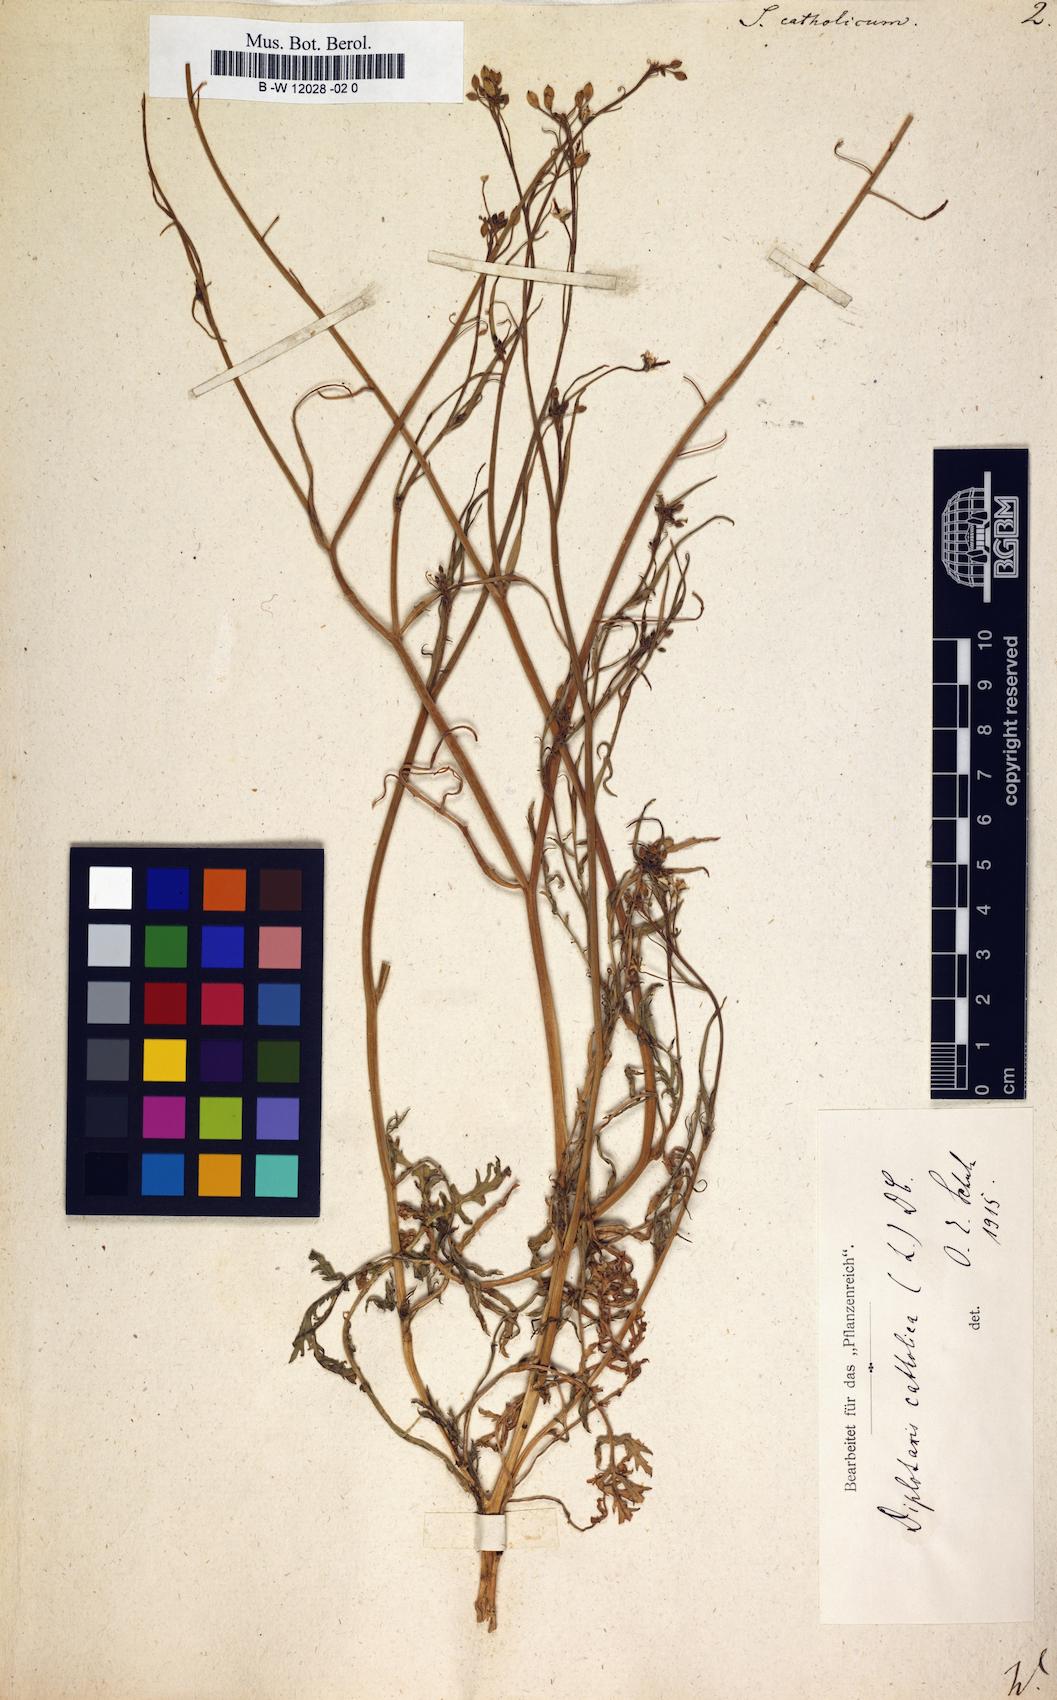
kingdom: Plantae
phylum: Tracheophyta
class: Magnoliopsida
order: Brassicales
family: Brassicaceae
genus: Diplotaxis
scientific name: Diplotaxis
